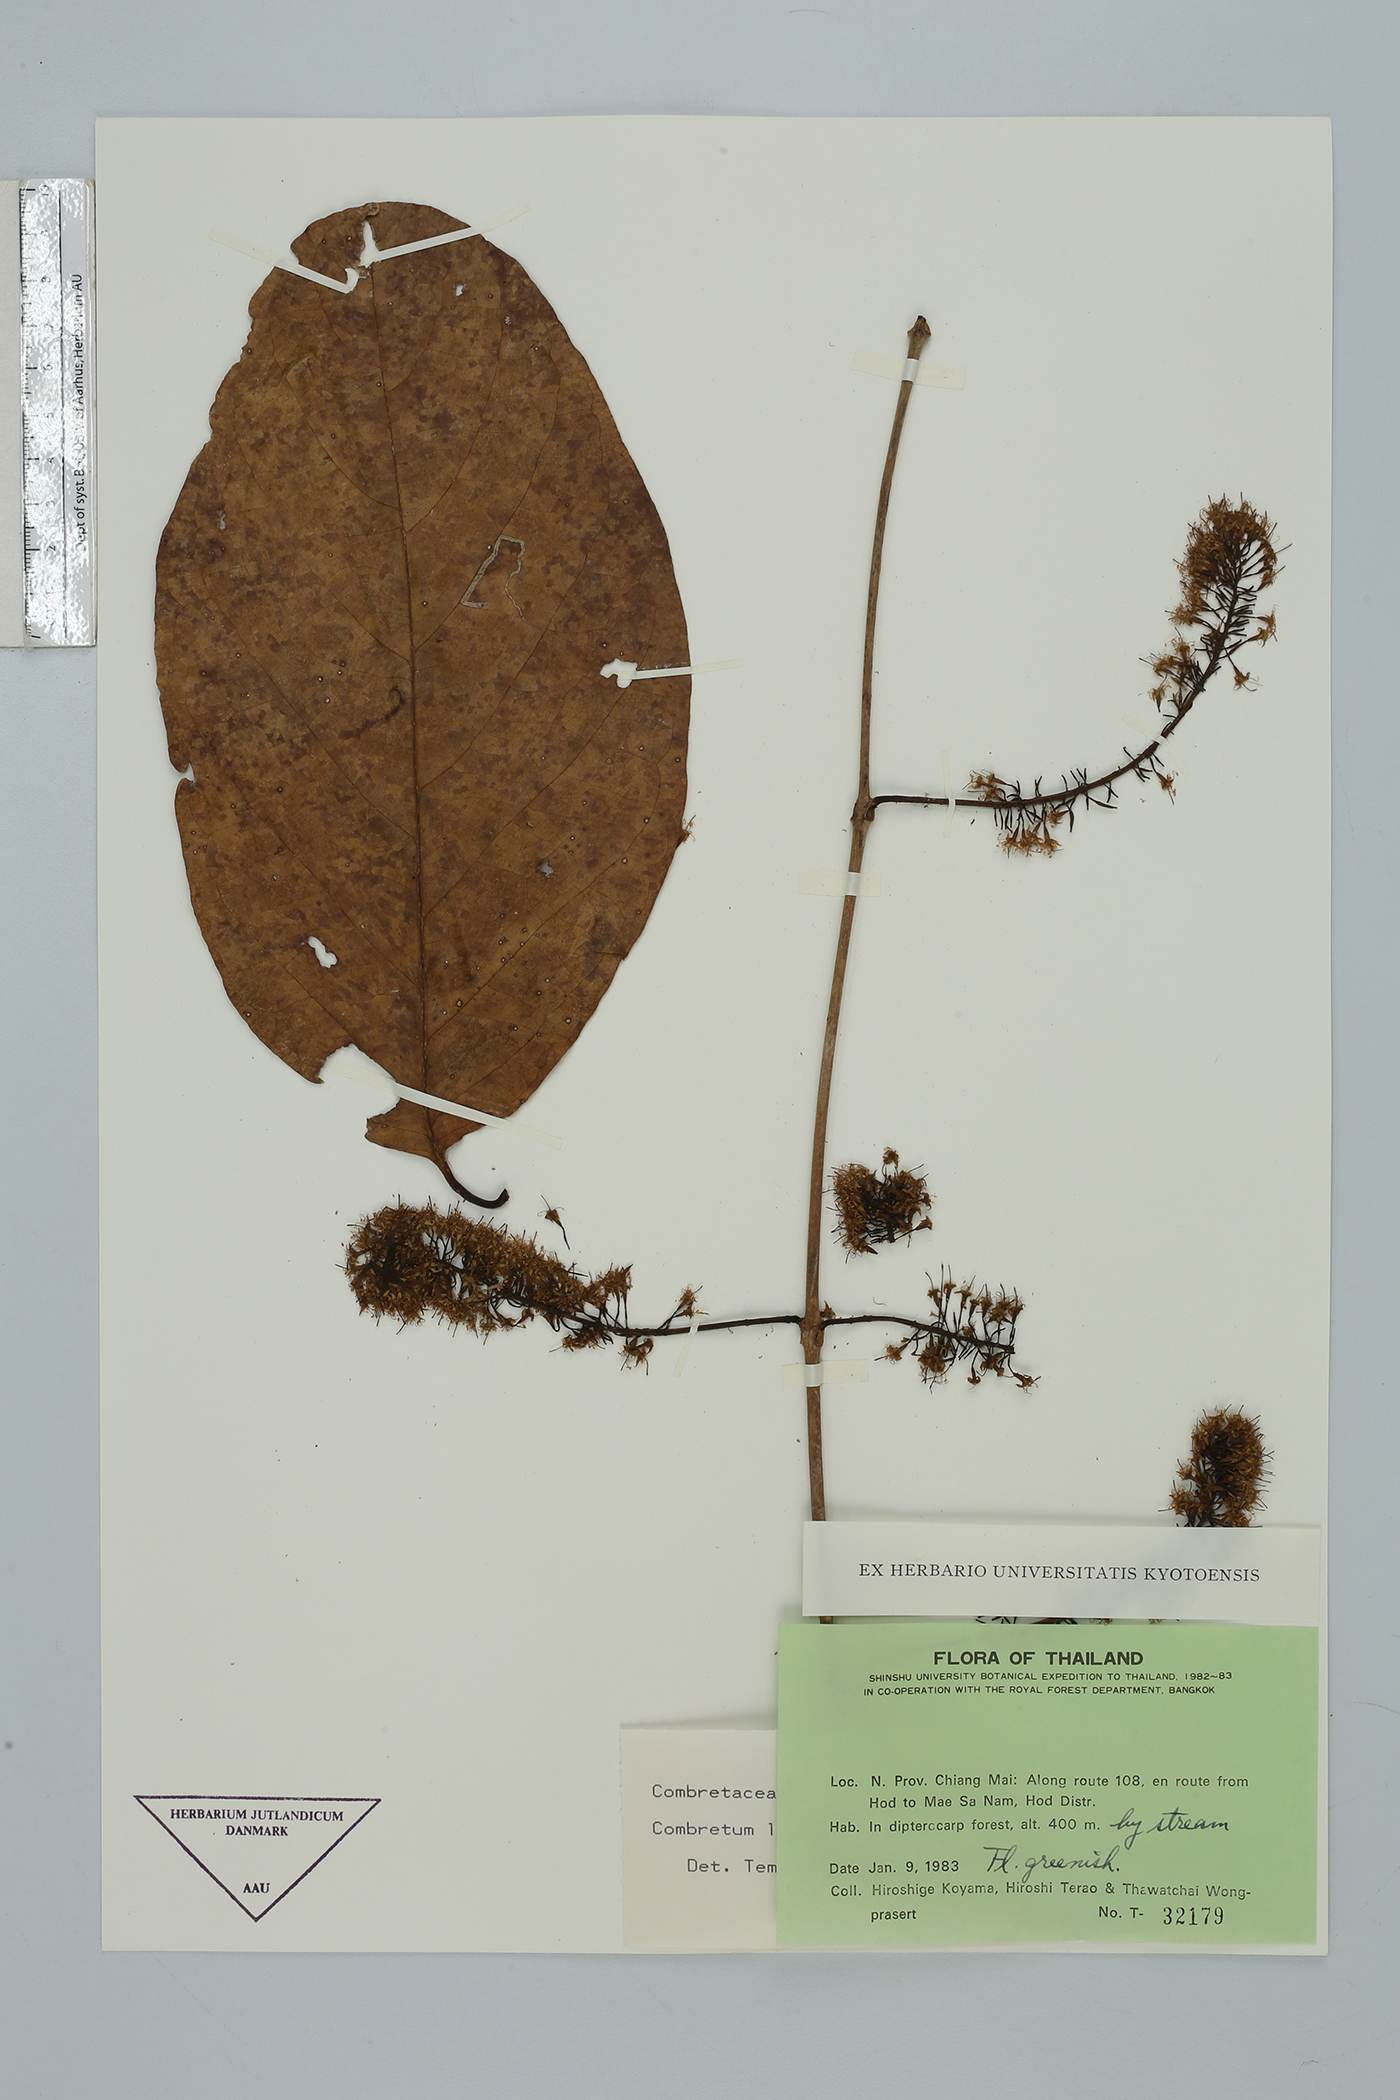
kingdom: Plantae
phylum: Tracheophyta
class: Magnoliopsida
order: Myrtales
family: Combretaceae
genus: Combretum
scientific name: Combretum latifolium
